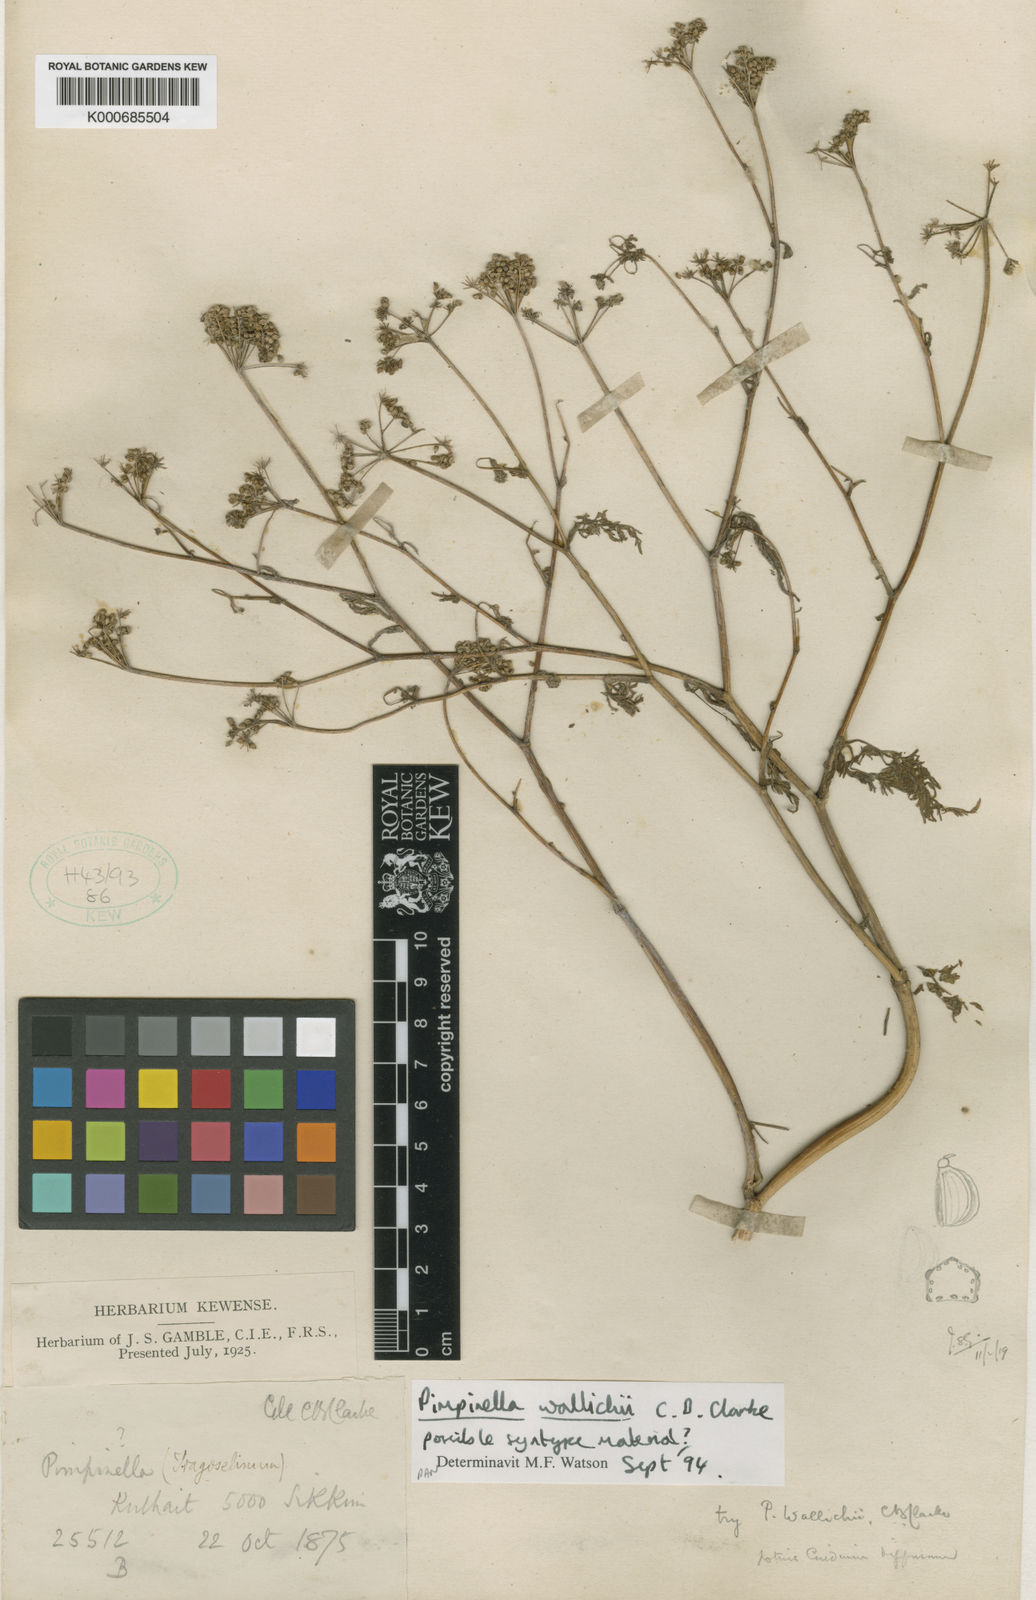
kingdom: Plantae
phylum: Tracheophyta
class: Magnoliopsida
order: Apiales
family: Apiaceae
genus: Pimpinella
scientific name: Pimpinella wallichii
